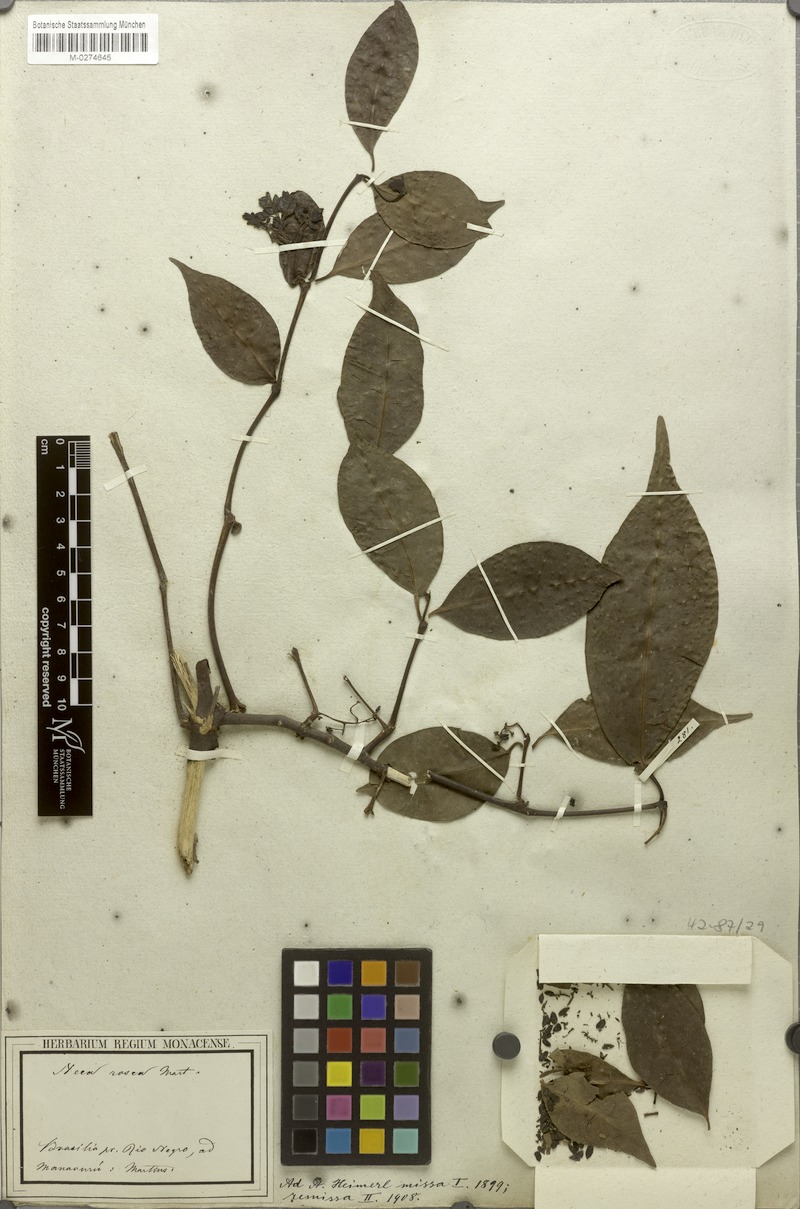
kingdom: Plantae
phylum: Tracheophyta
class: Magnoliopsida
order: Caryophyllales
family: Nyctaginaceae
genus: Neea
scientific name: Neea oppositifolia
